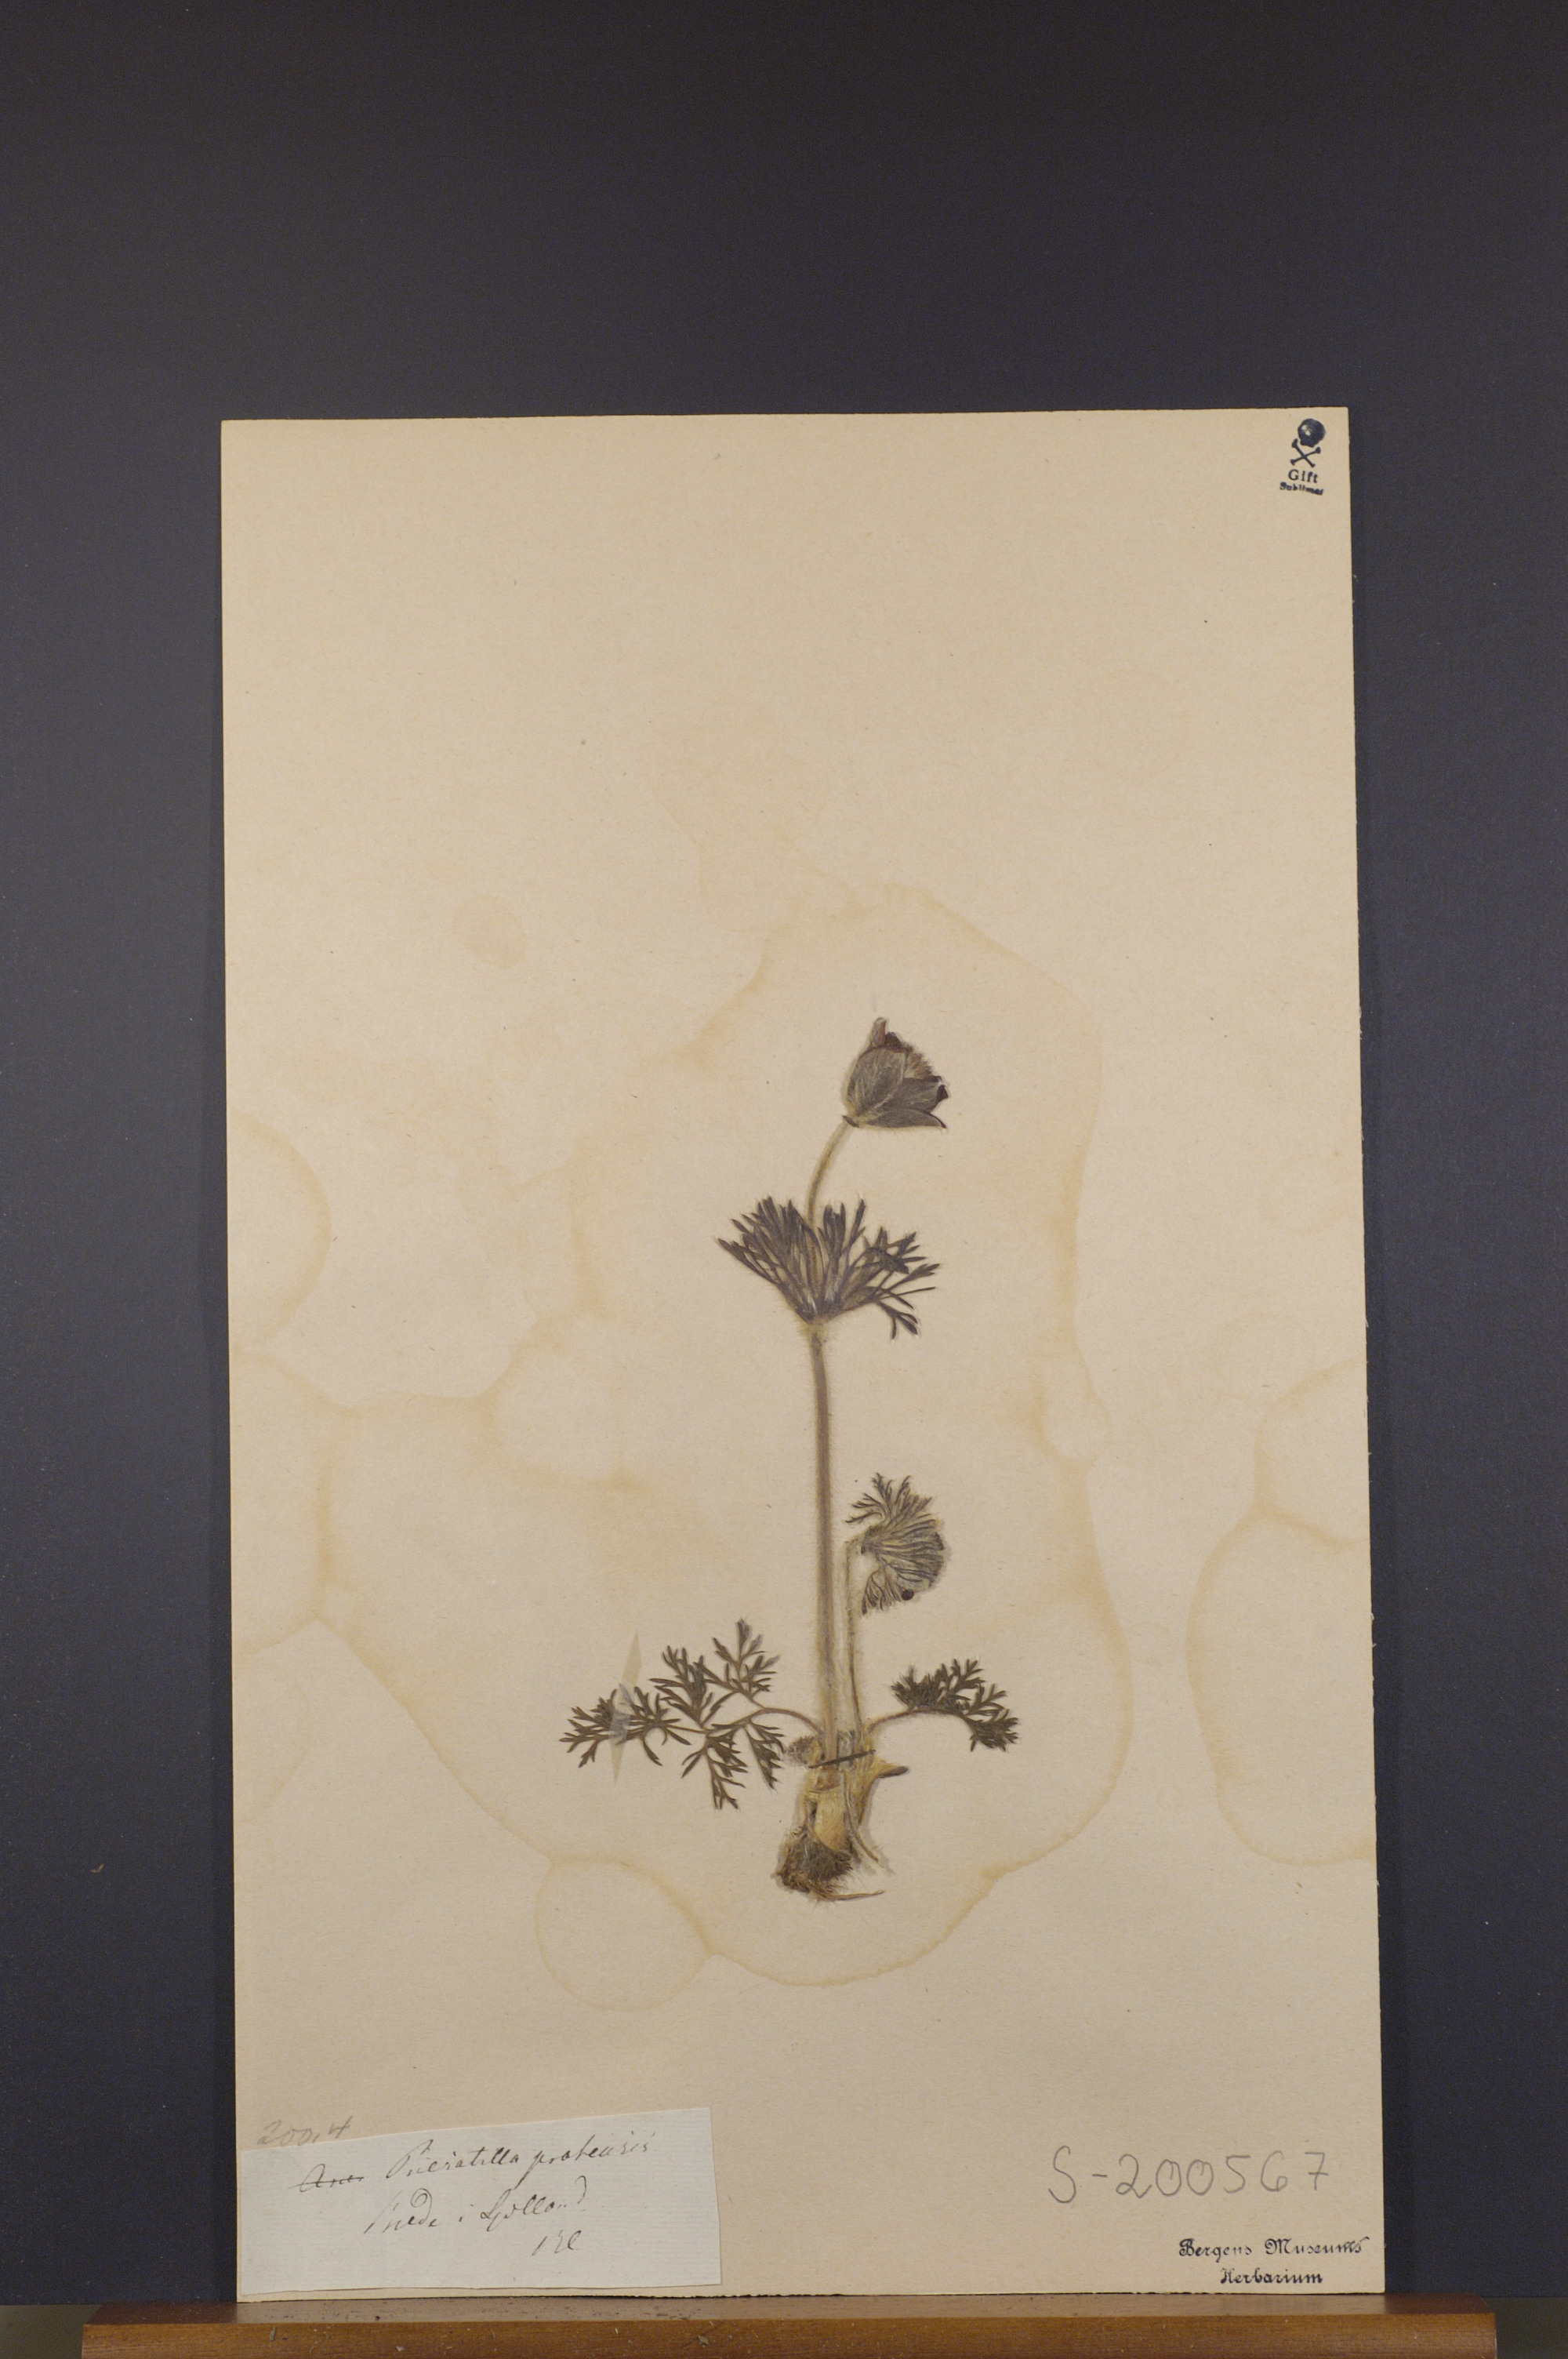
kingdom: Plantae
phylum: Tracheophyta
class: Magnoliopsida
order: Ranunculales
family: Ranunculaceae
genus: Pulsatilla
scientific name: Pulsatilla pratensis
